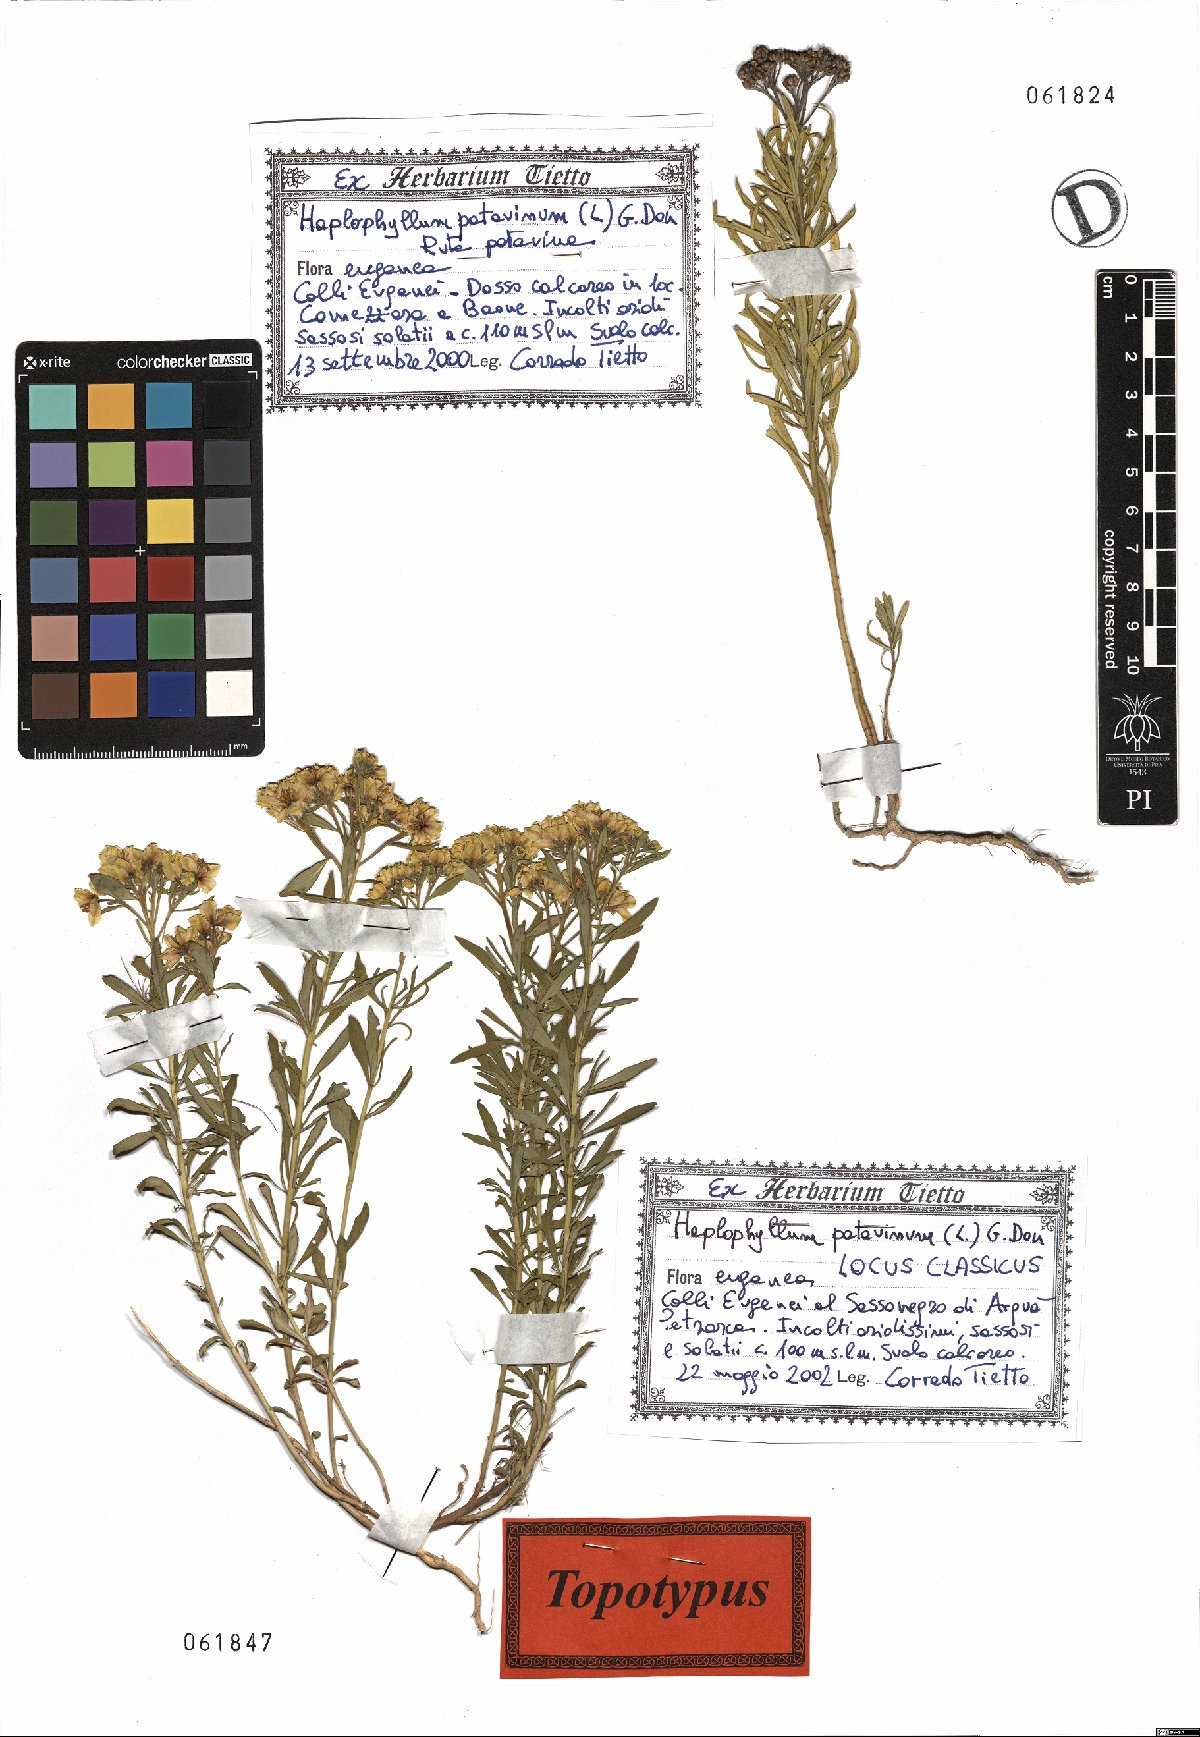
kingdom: Plantae
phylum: Tracheophyta
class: Magnoliopsida
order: Sapindales
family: Rutaceae
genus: Haplophyllum
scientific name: Haplophyllum patavinum
